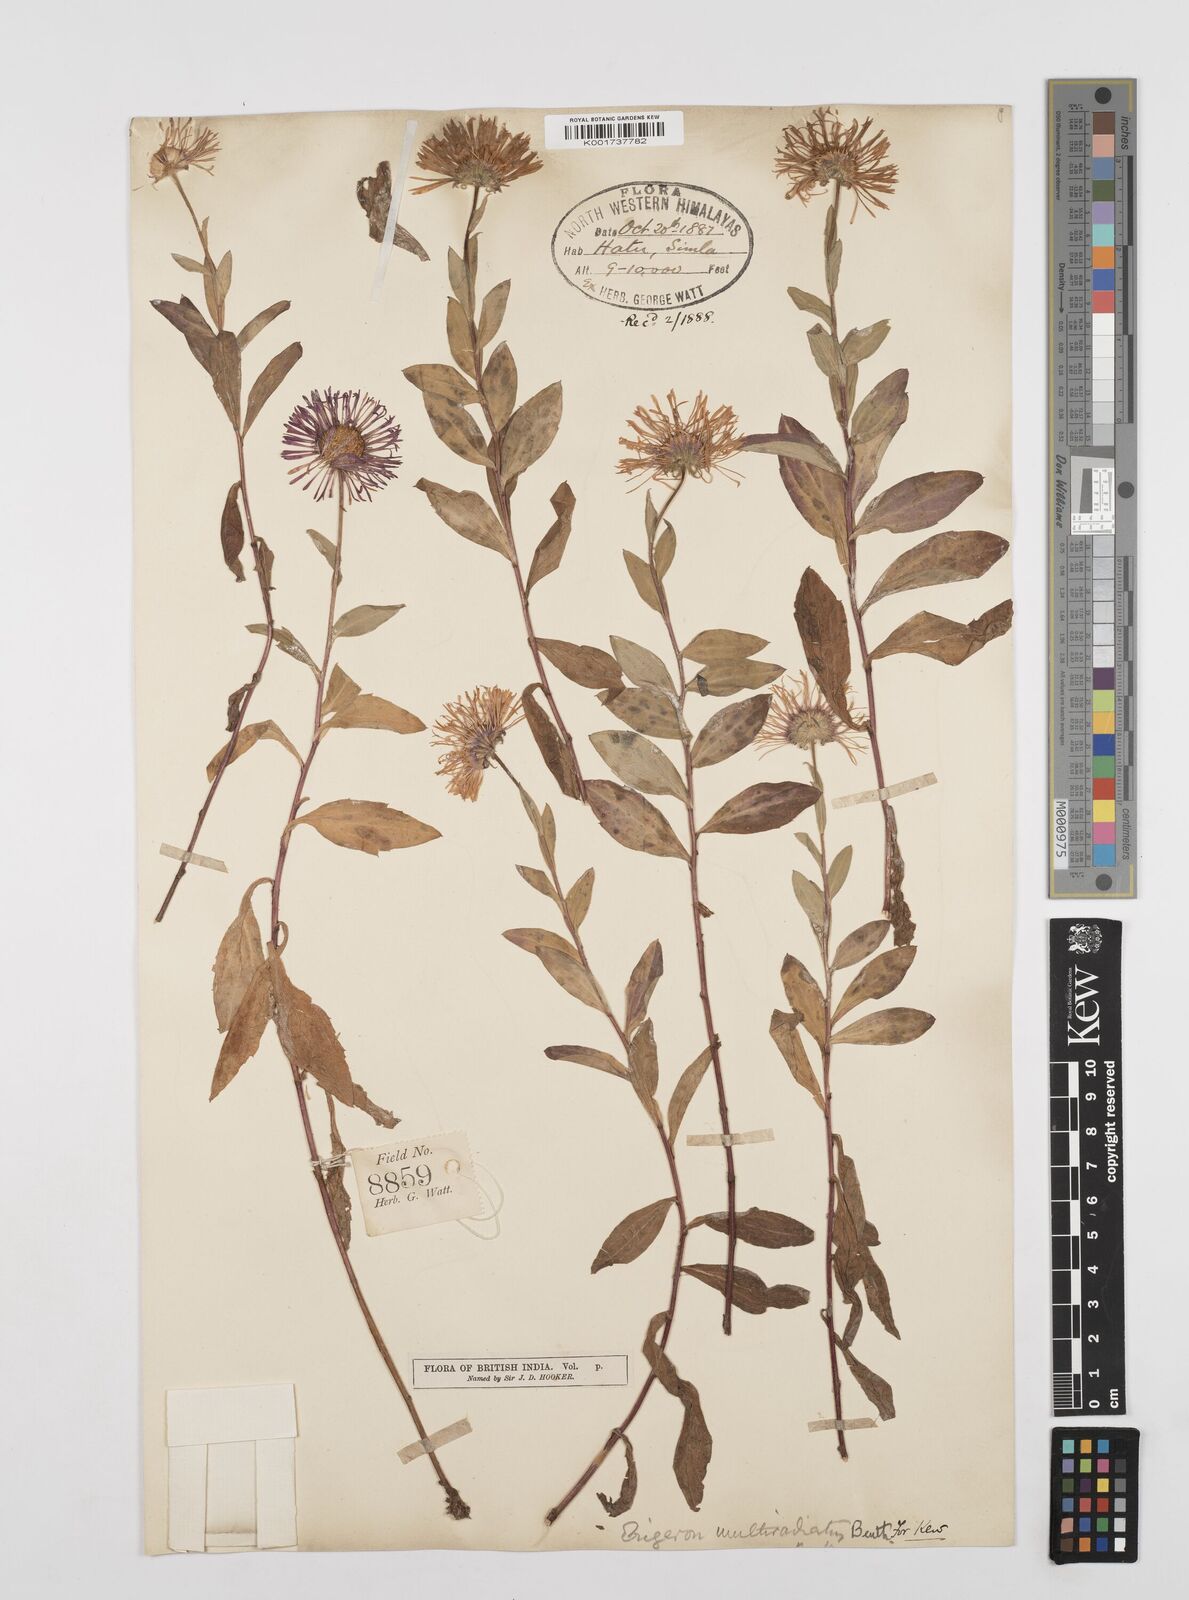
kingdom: Plantae
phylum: Tracheophyta
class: Magnoliopsida
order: Asterales
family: Asteraceae
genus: Erigeron
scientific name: Erigeron multiradiatus
